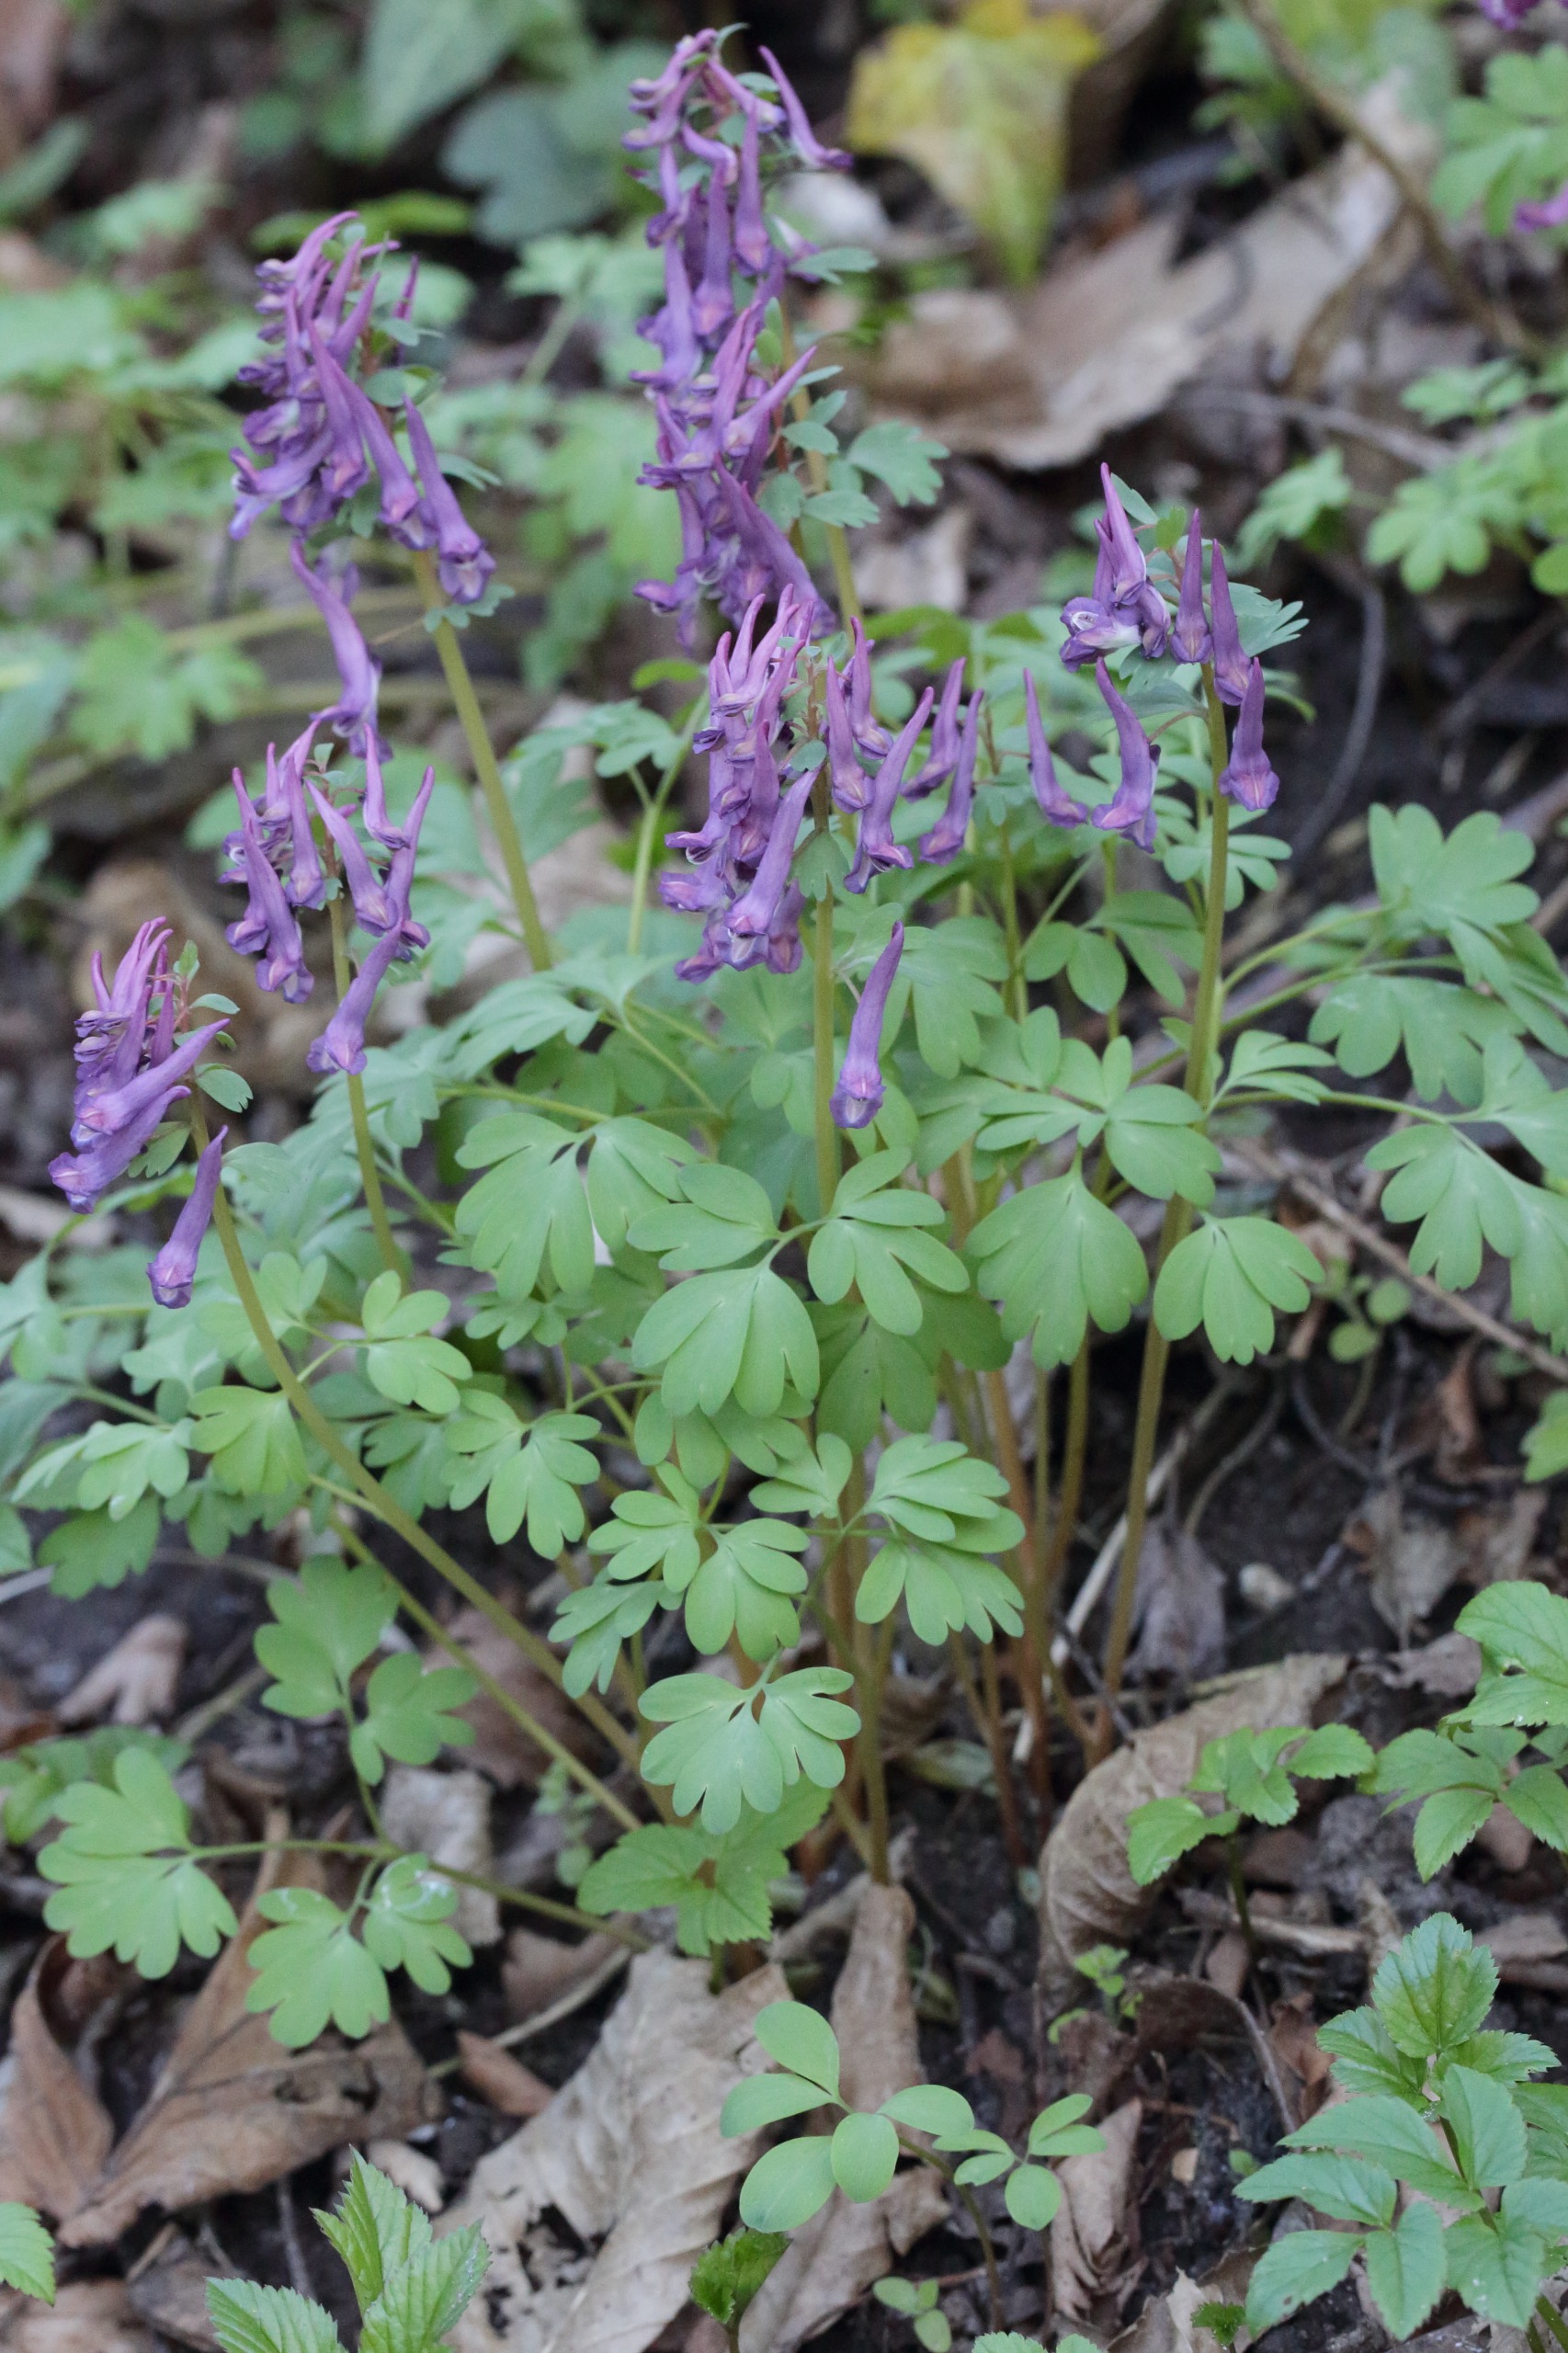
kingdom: Plantae
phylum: Tracheophyta
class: Magnoliopsida
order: Ranunculales
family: Papaveraceae
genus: Corydalis
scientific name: Corydalis solida
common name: Langstilket lærkespore
